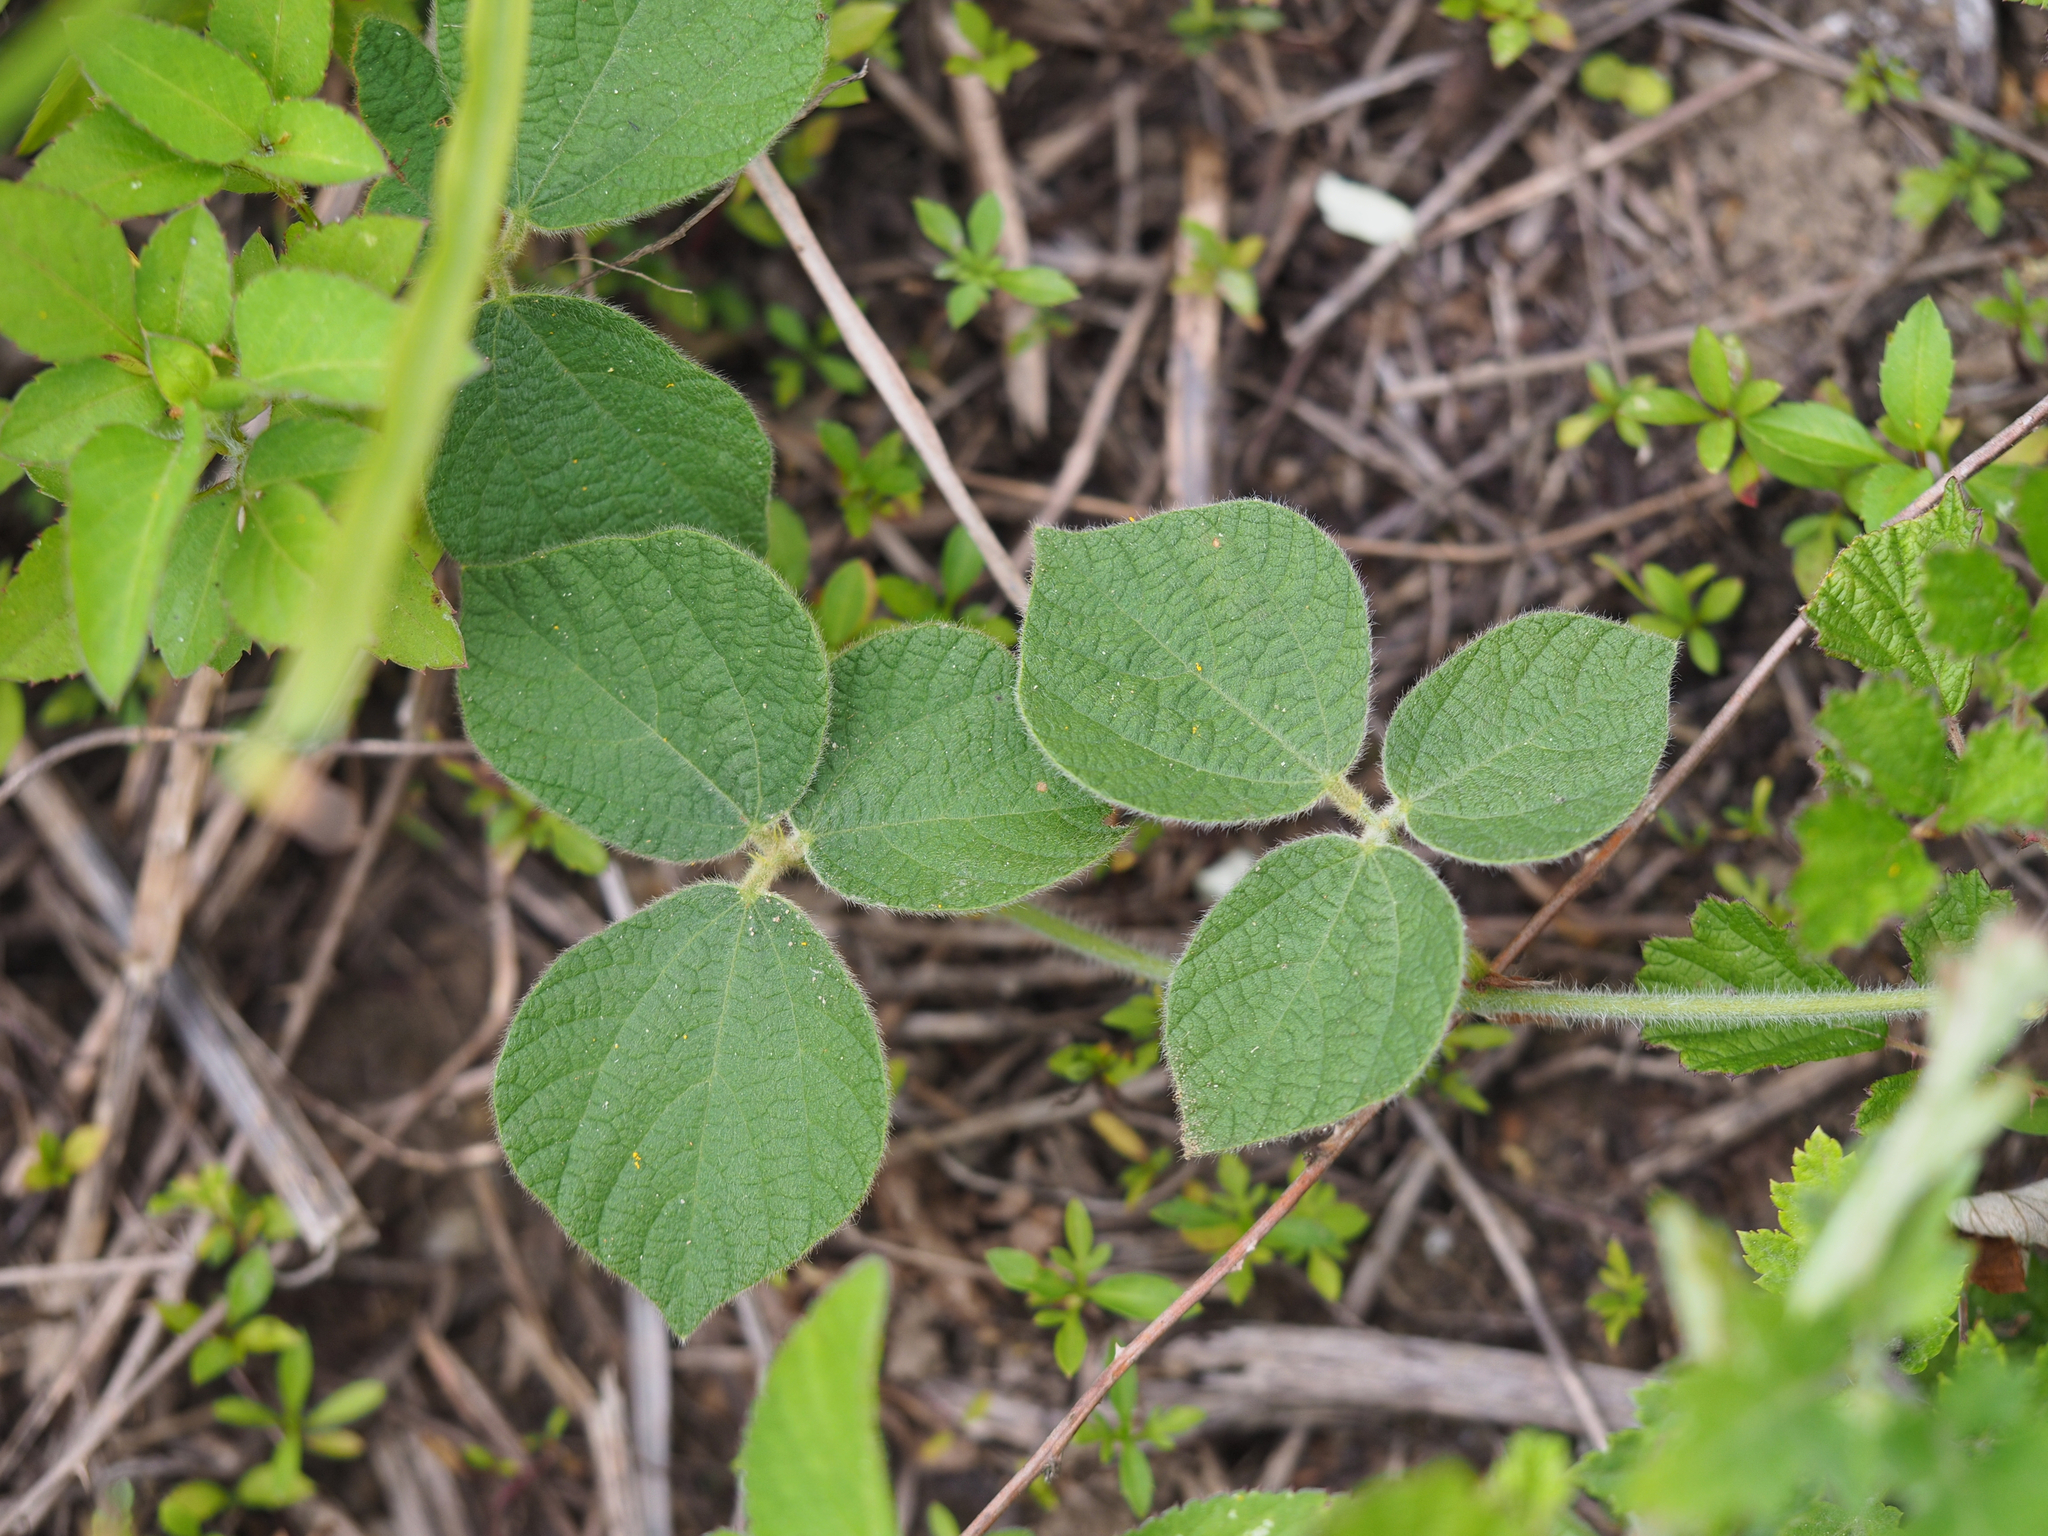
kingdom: Plantae
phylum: Tracheophyta
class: Magnoliopsida
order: Fabales
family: Fabaceae
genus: Rhynchosia
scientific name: Rhynchosia volubilis
